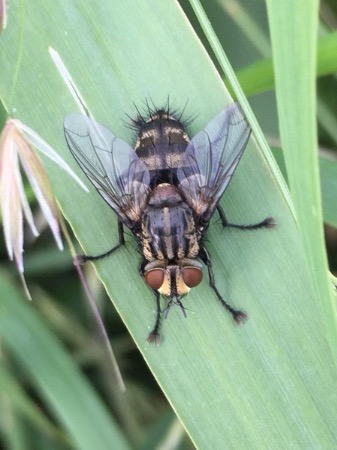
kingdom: Animalia
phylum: Arthropoda
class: Insecta
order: Diptera
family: Tachinidae
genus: Exorista
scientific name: Exorista larvarum
